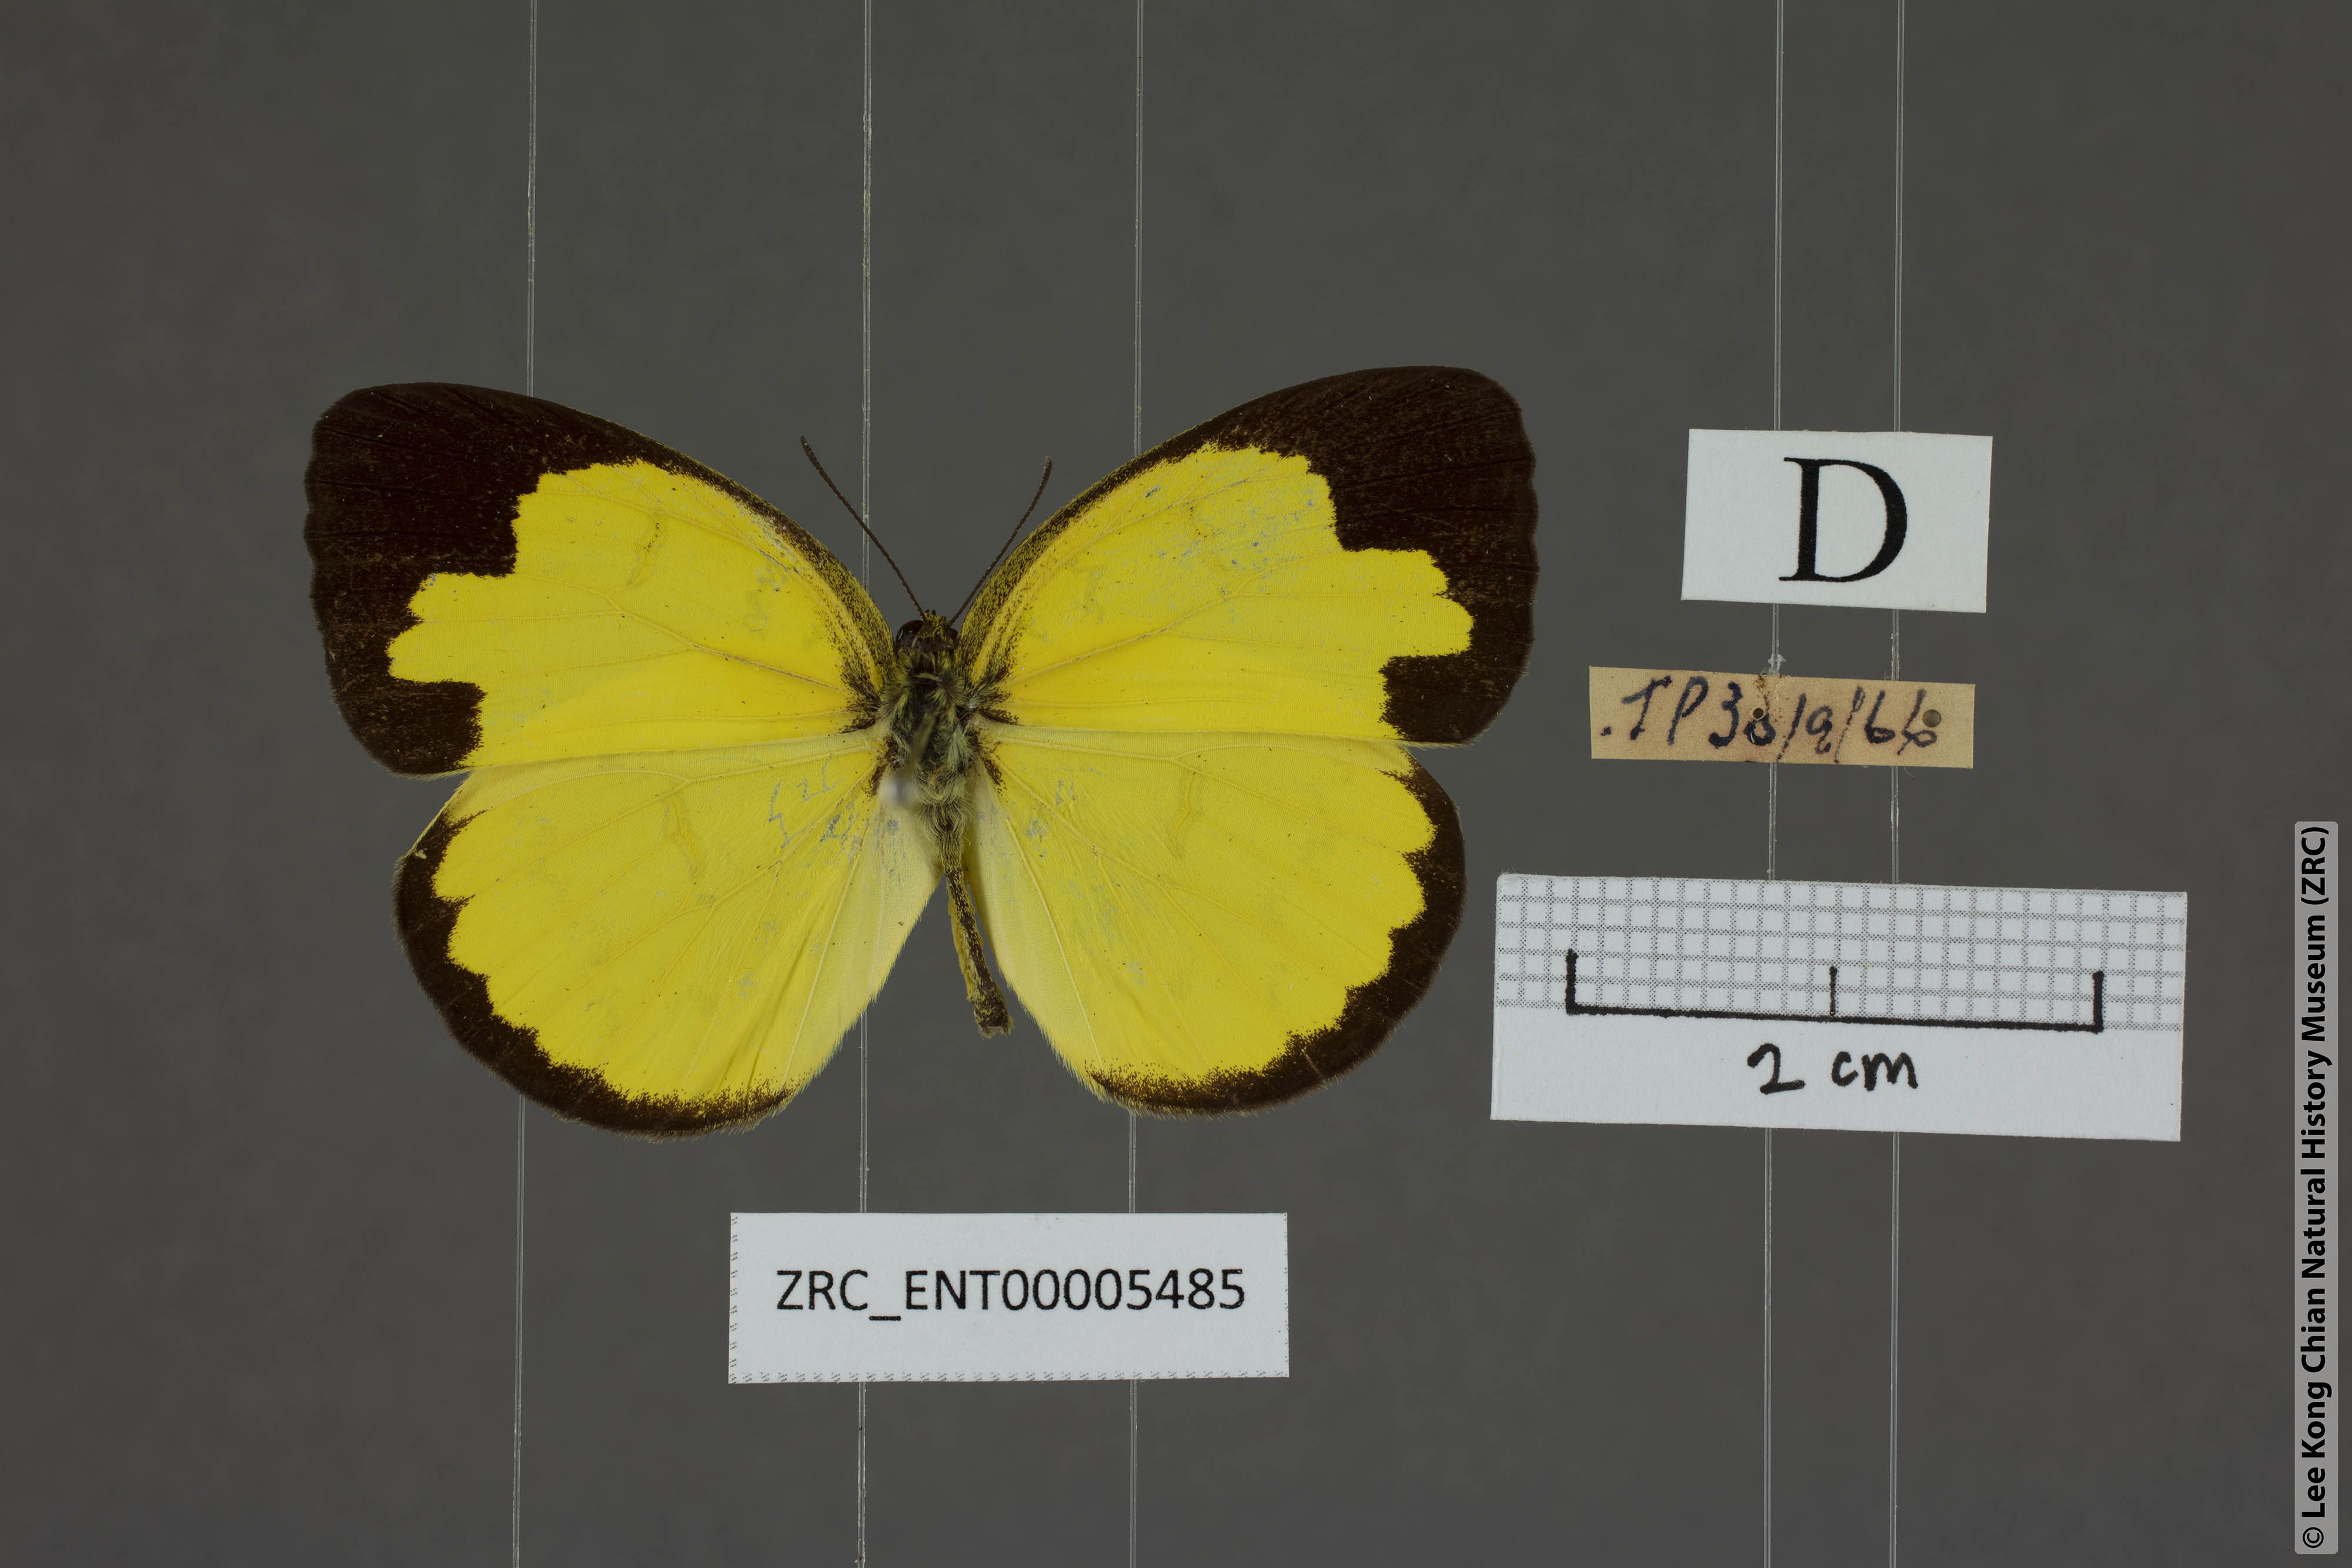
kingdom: Animalia
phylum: Arthropoda
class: Insecta
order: Lepidoptera
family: Pieridae
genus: Eurema
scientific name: Eurema simulatrix
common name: Hill grass yellow
